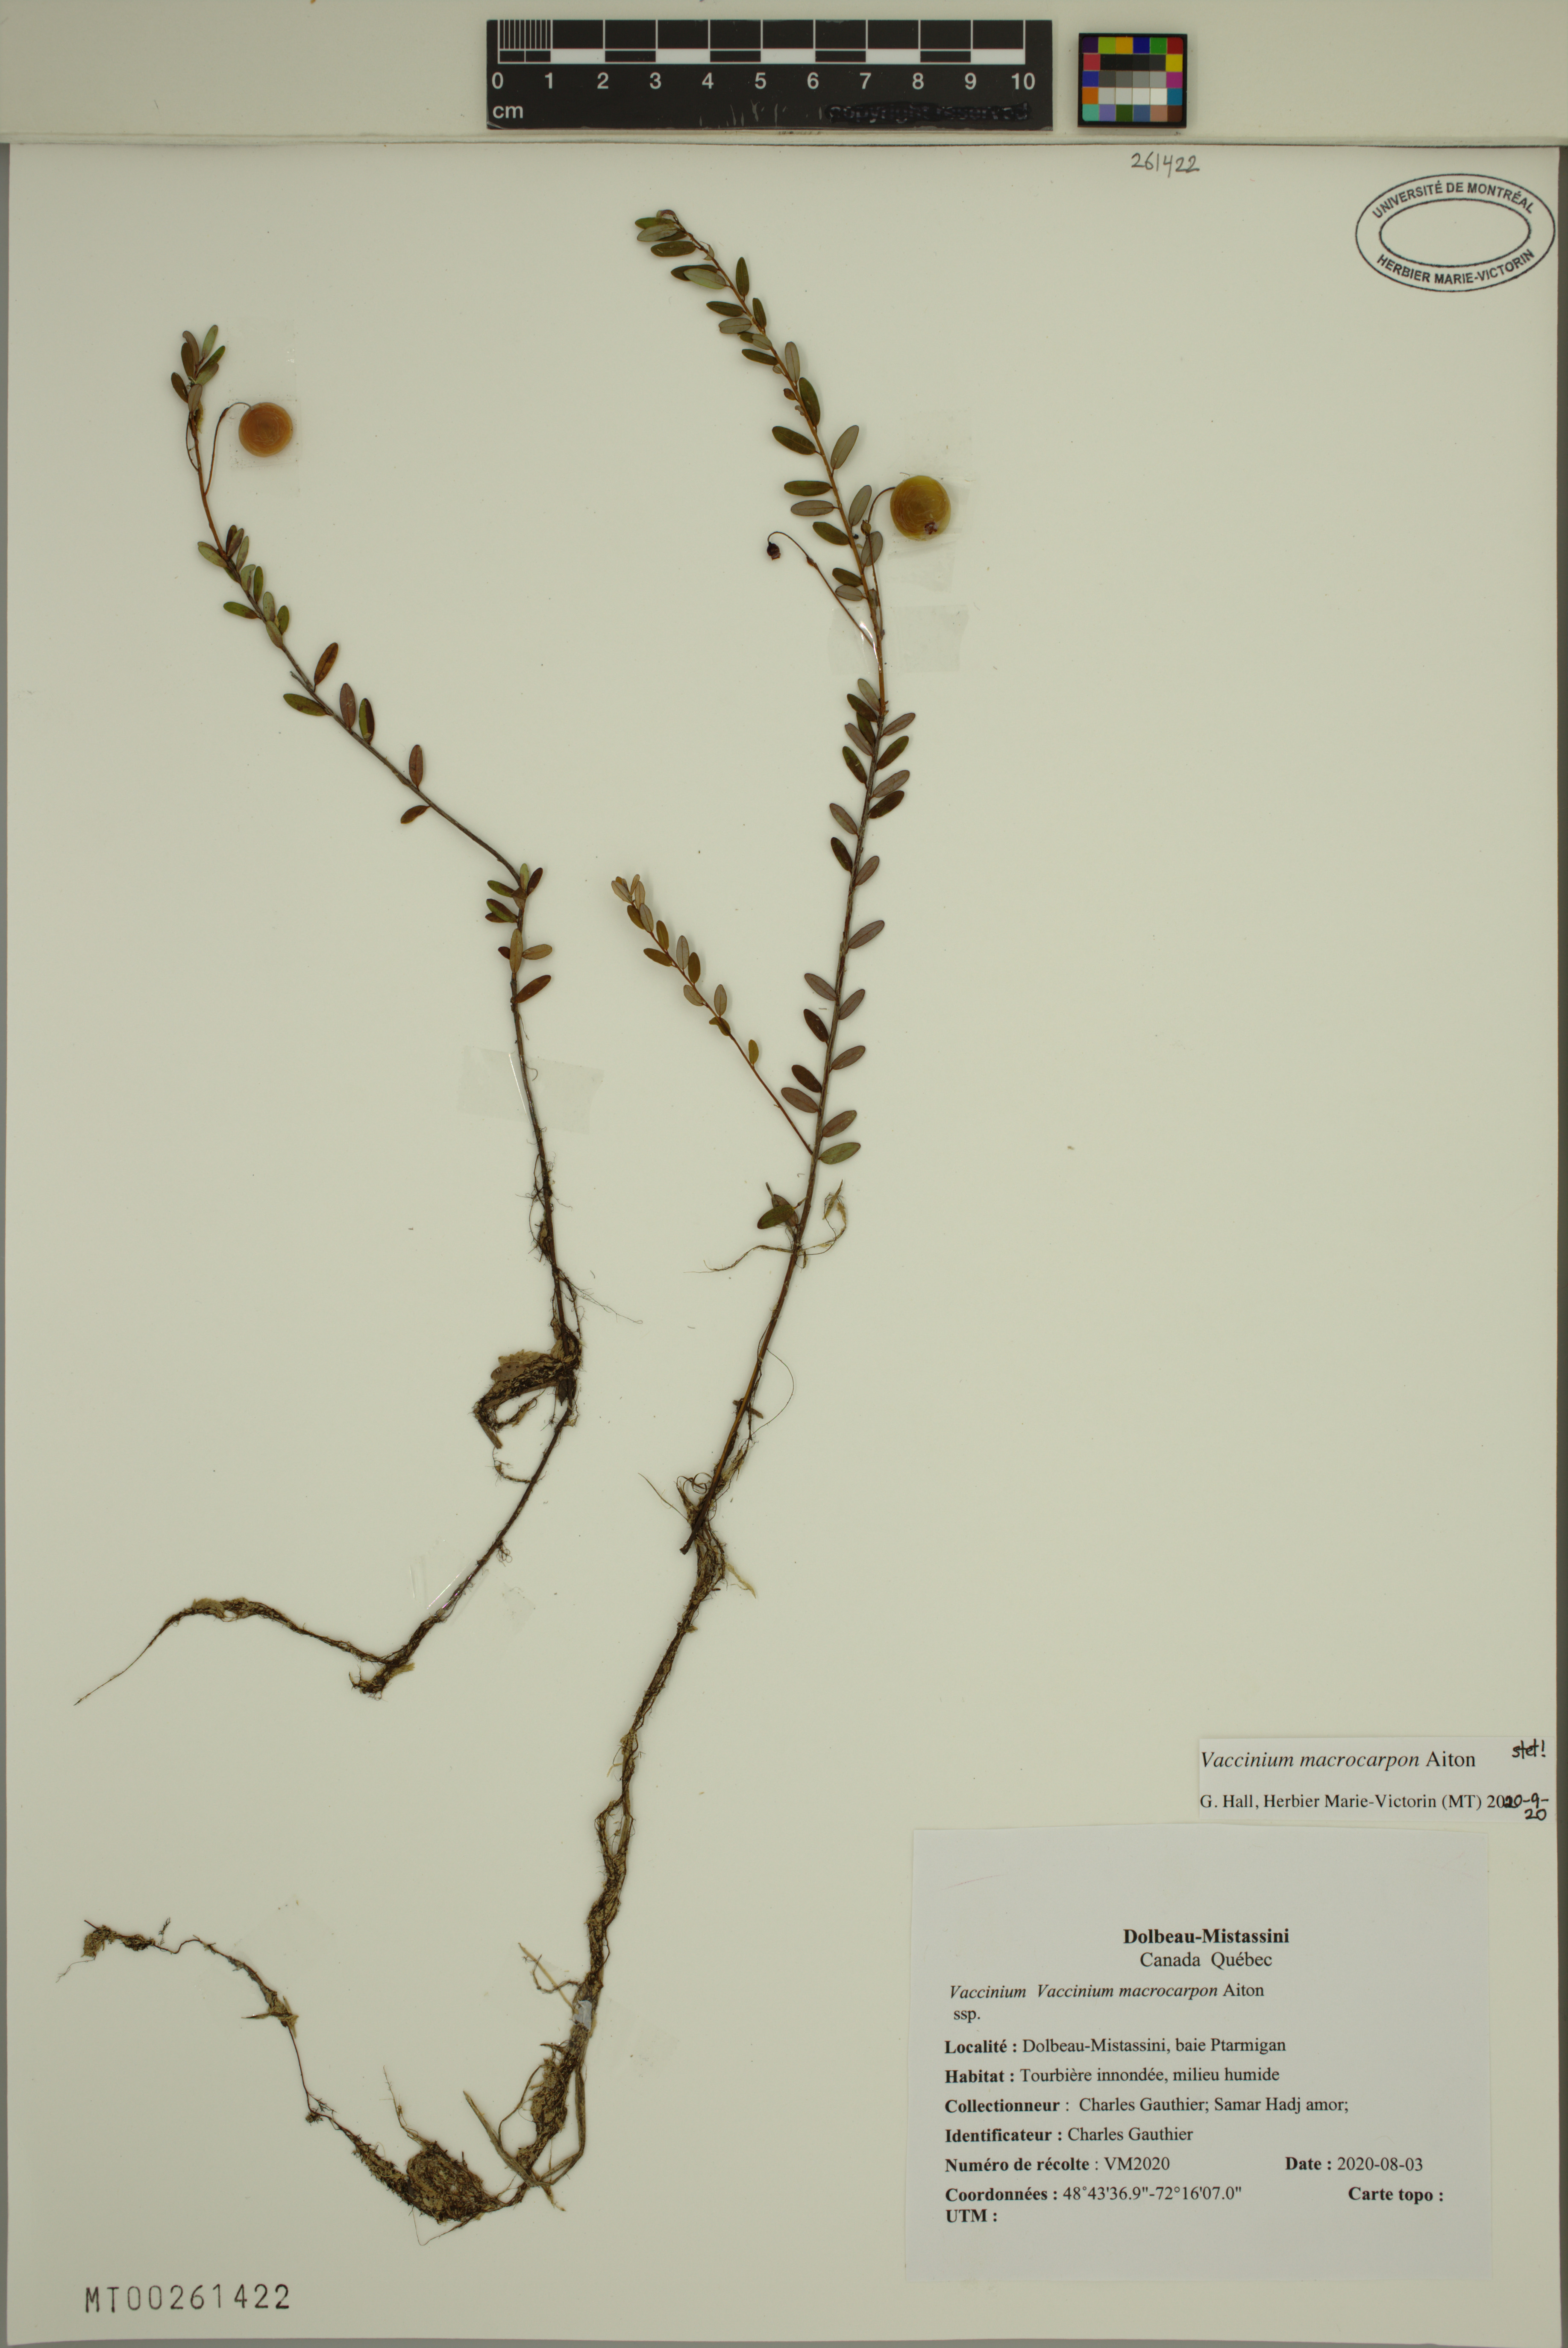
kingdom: Plantae
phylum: Tracheophyta
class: Magnoliopsida
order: Ericales
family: Ericaceae
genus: Vaccinium
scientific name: Vaccinium macrocarpon
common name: American cranberry
